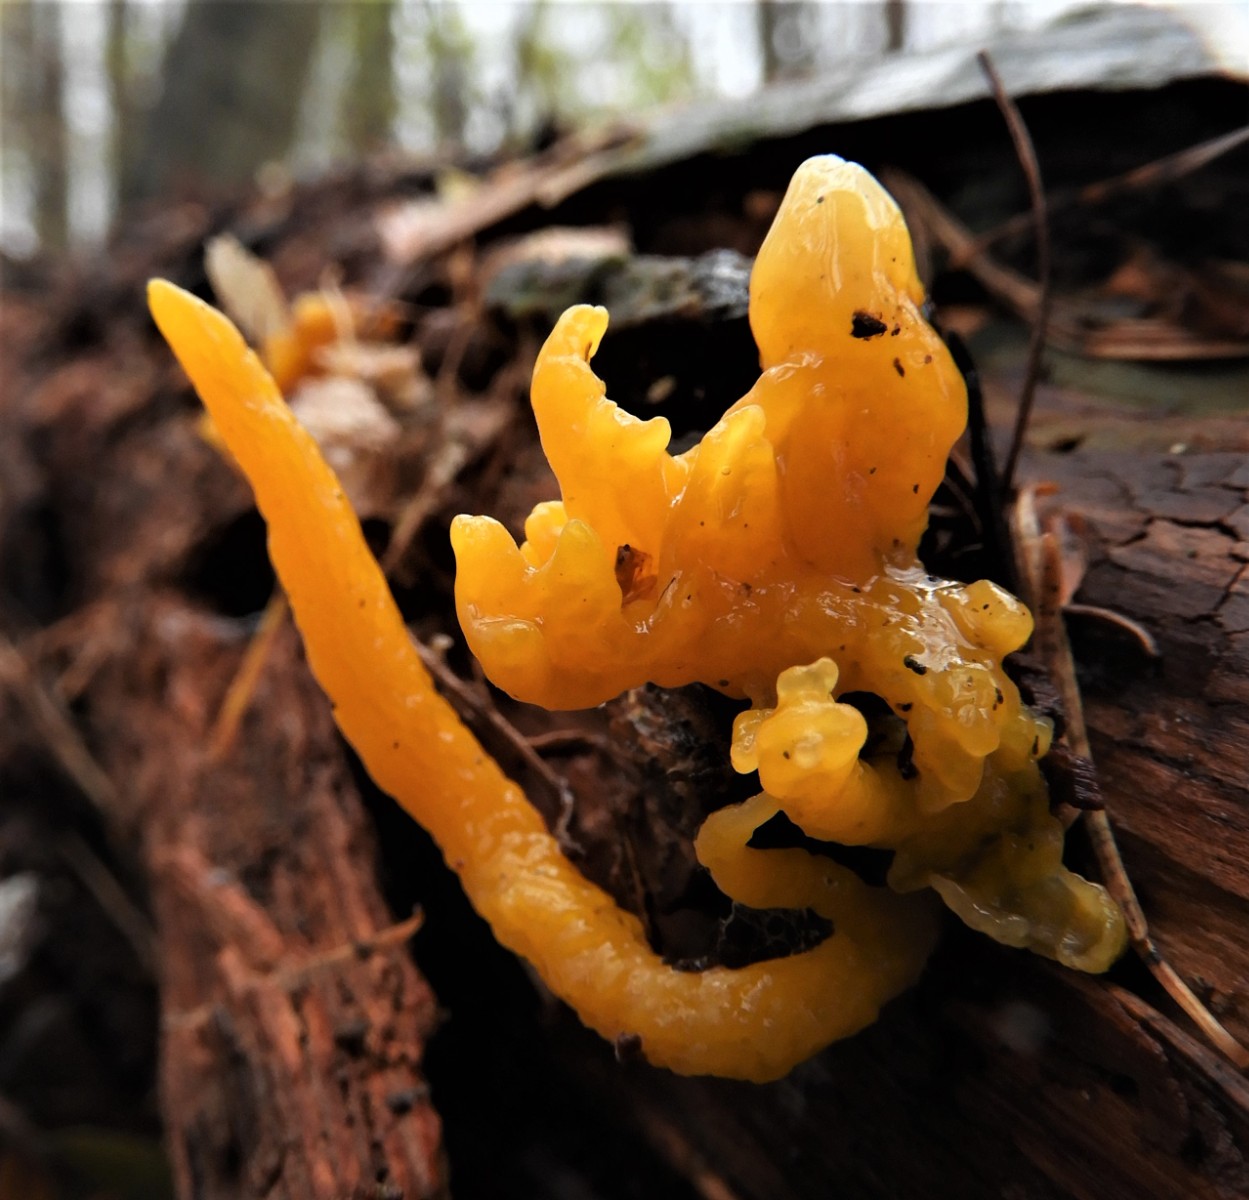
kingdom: Fungi
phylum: Basidiomycota
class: Dacrymycetes
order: Dacrymycetales
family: Dacrymycetaceae
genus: Calocera
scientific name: Calocera viscosa
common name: almindelig guldgaffel
